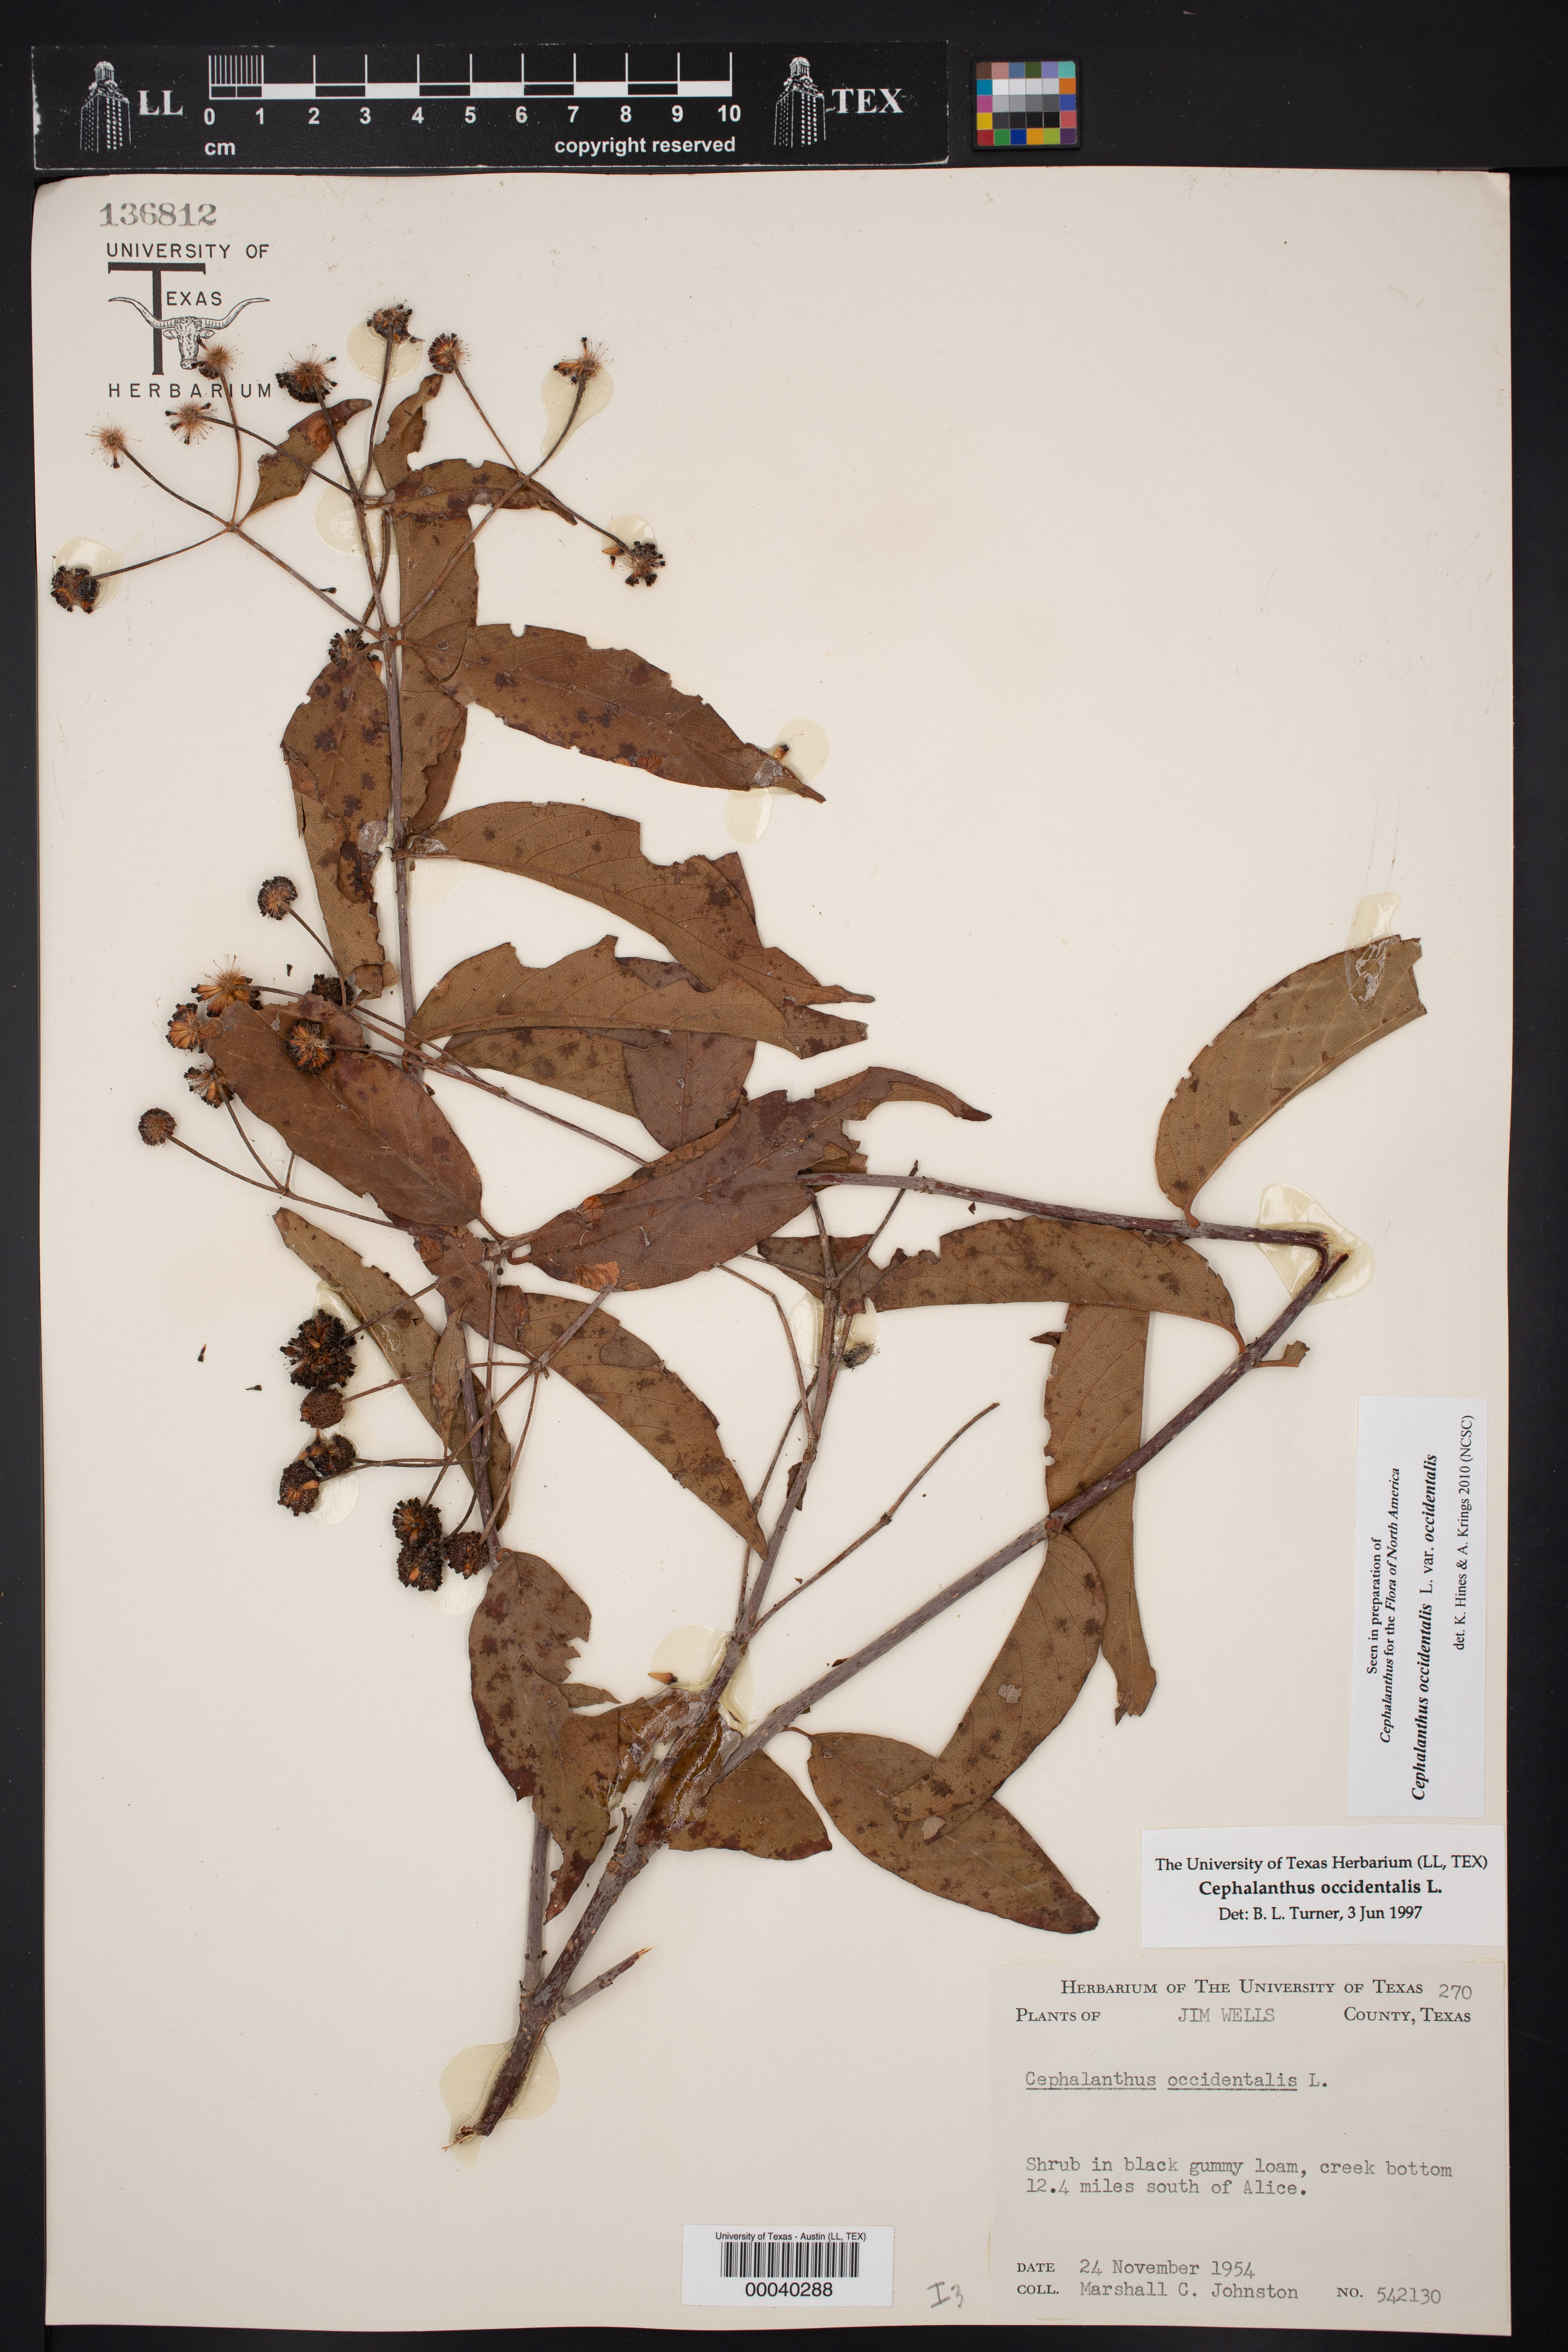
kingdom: Plantae
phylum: Tracheophyta
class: Magnoliopsida
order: Gentianales
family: Rubiaceae
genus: Cephalanthus
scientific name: Cephalanthus occidentalis
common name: Button-willow
